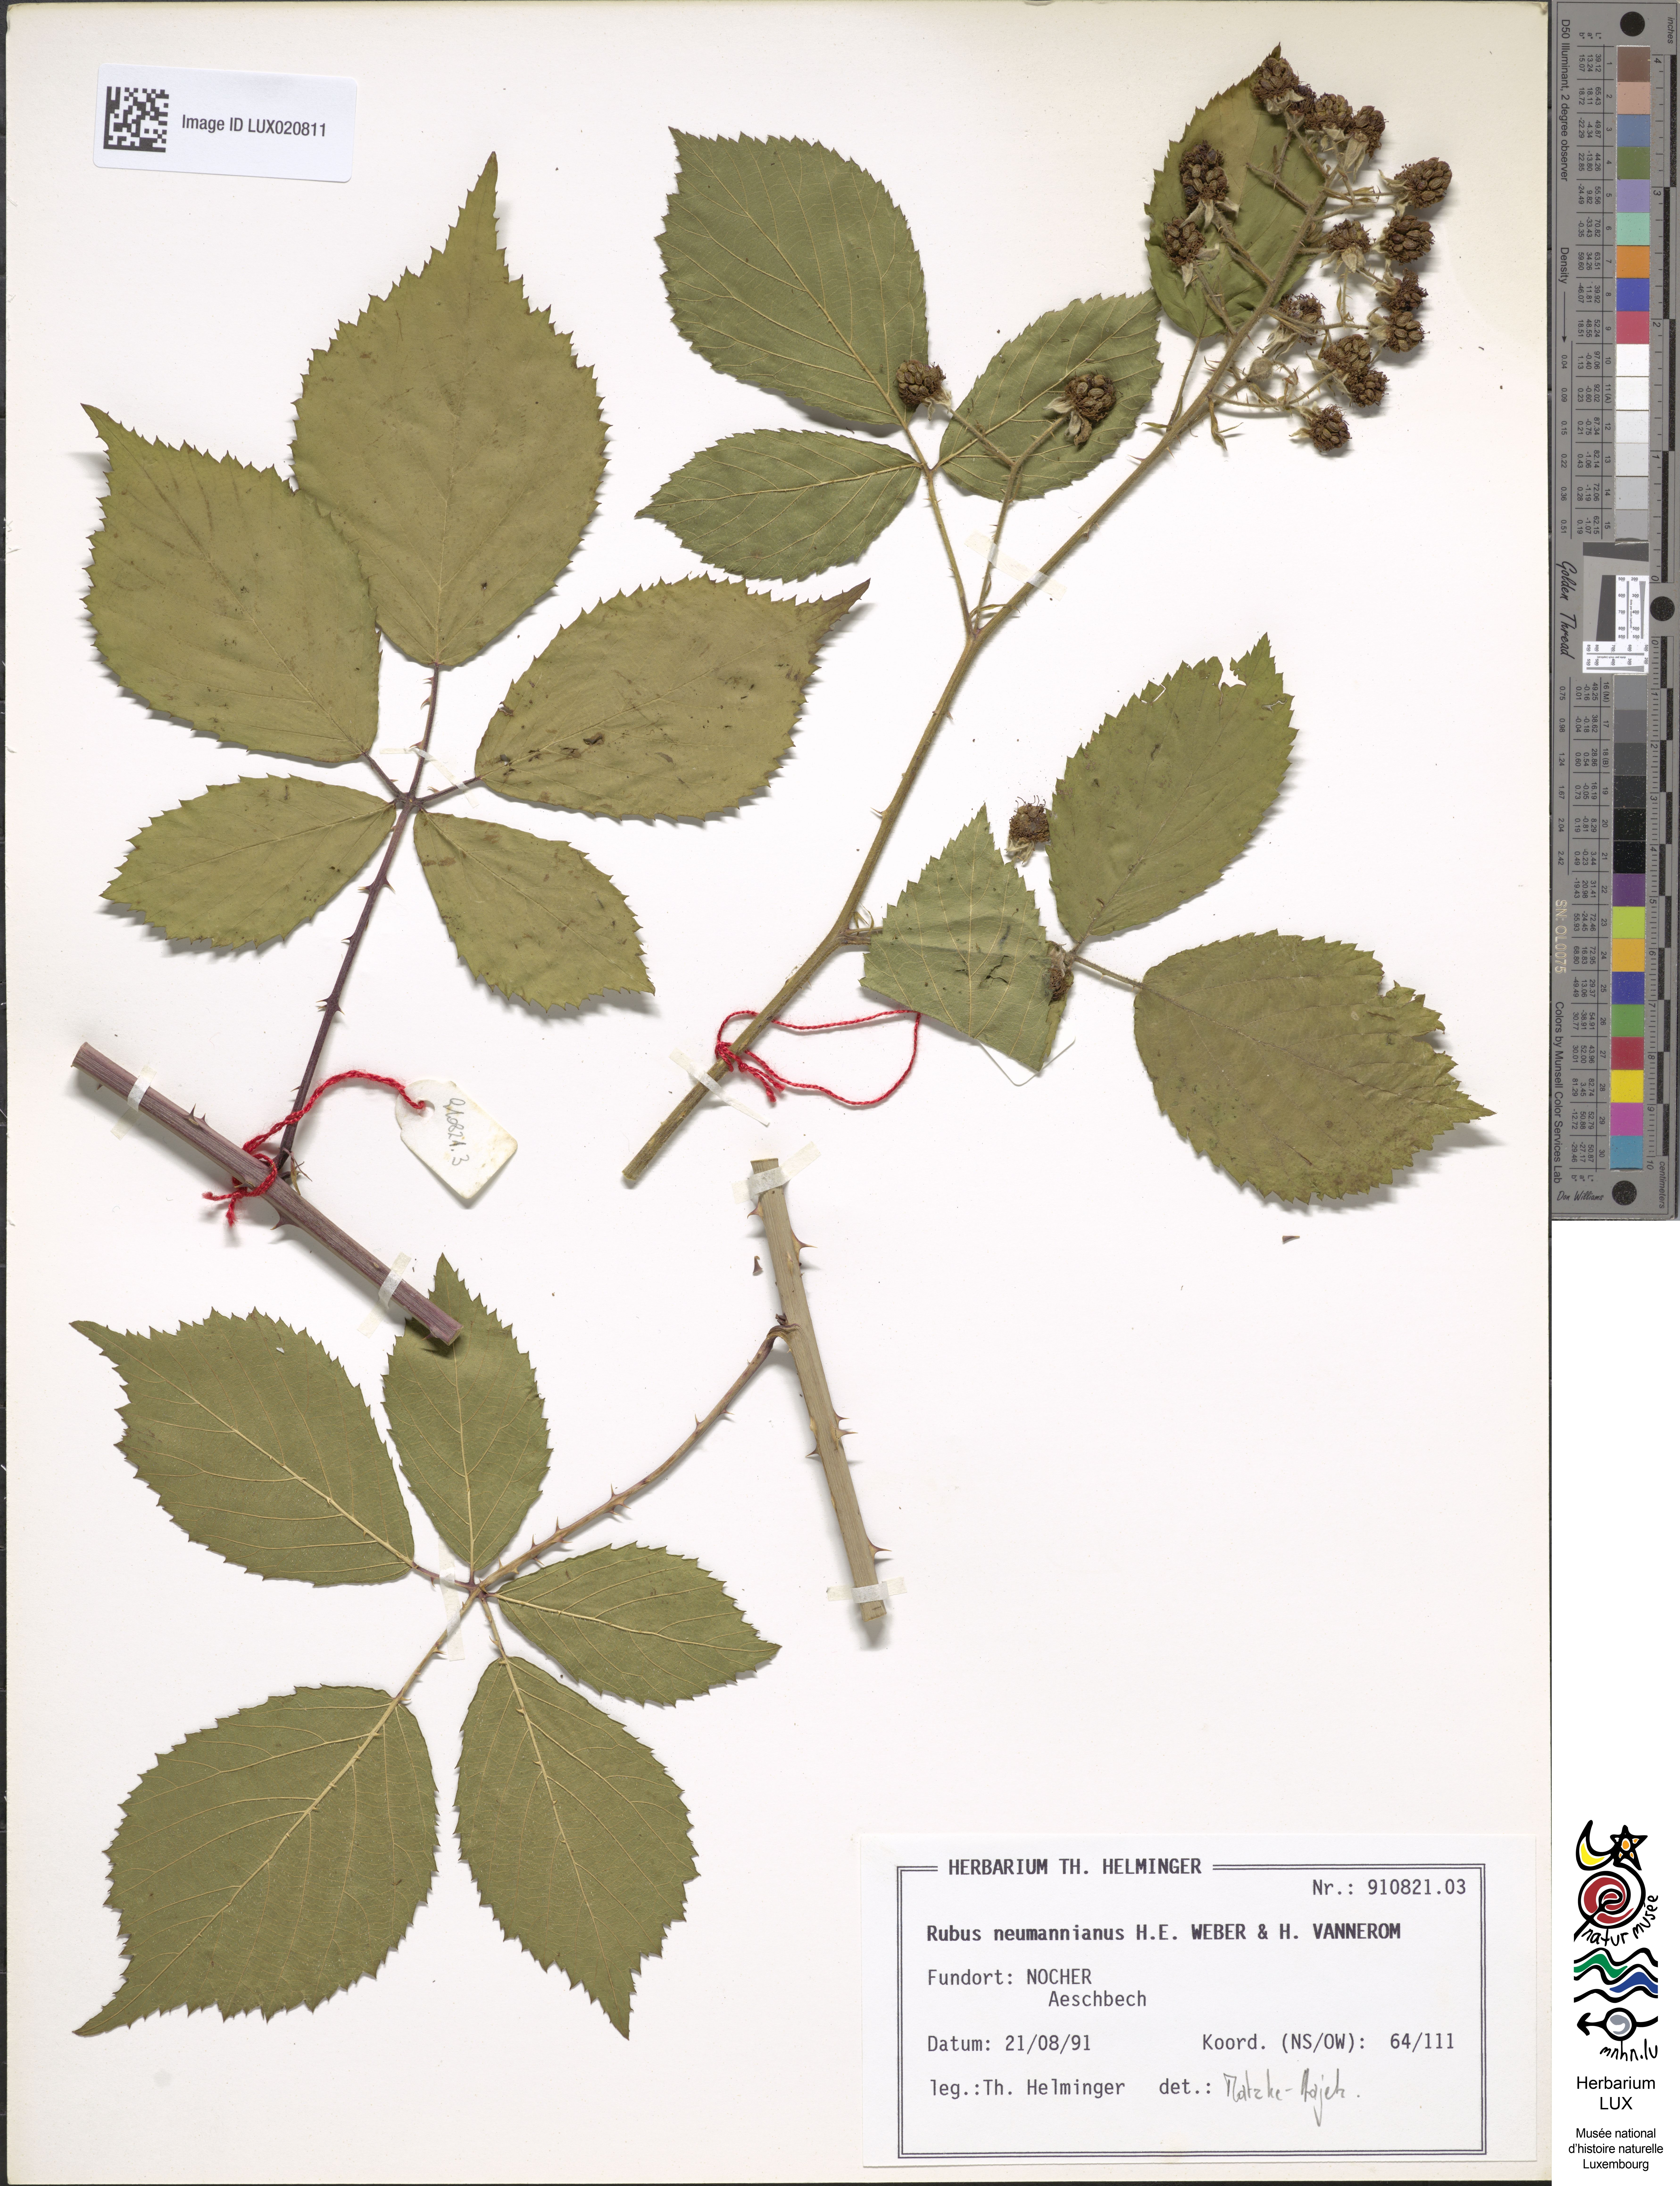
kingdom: Plantae
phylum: Tracheophyta
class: Magnoliopsida
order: Rosales
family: Rosaceae
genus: Rubus
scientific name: Rubus favonii
